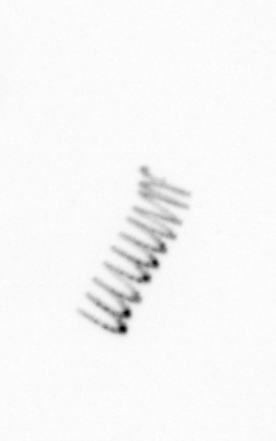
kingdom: Chromista
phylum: Ochrophyta
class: Bacillariophyceae
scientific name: Bacillariophyceae
